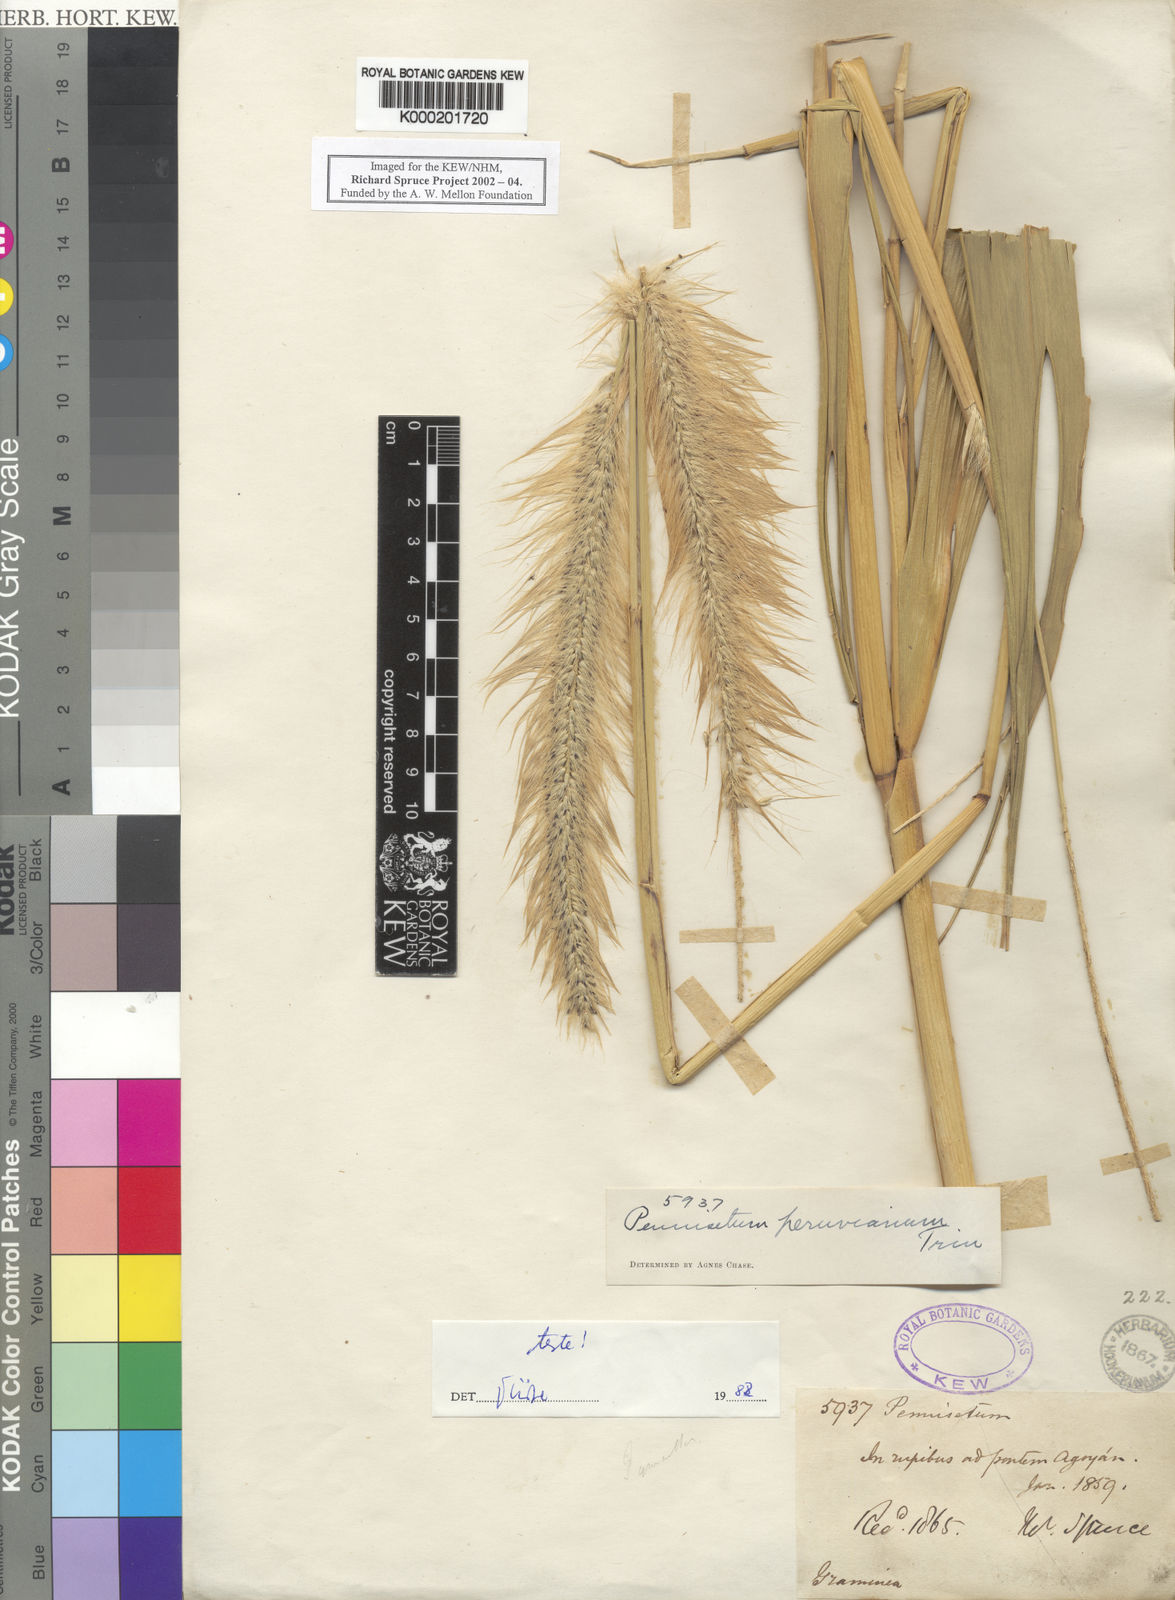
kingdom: Plantae
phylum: Tracheophyta
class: Liliopsida
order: Poales
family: Poaceae
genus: Cenchrus
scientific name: Cenchrus peruvianus
